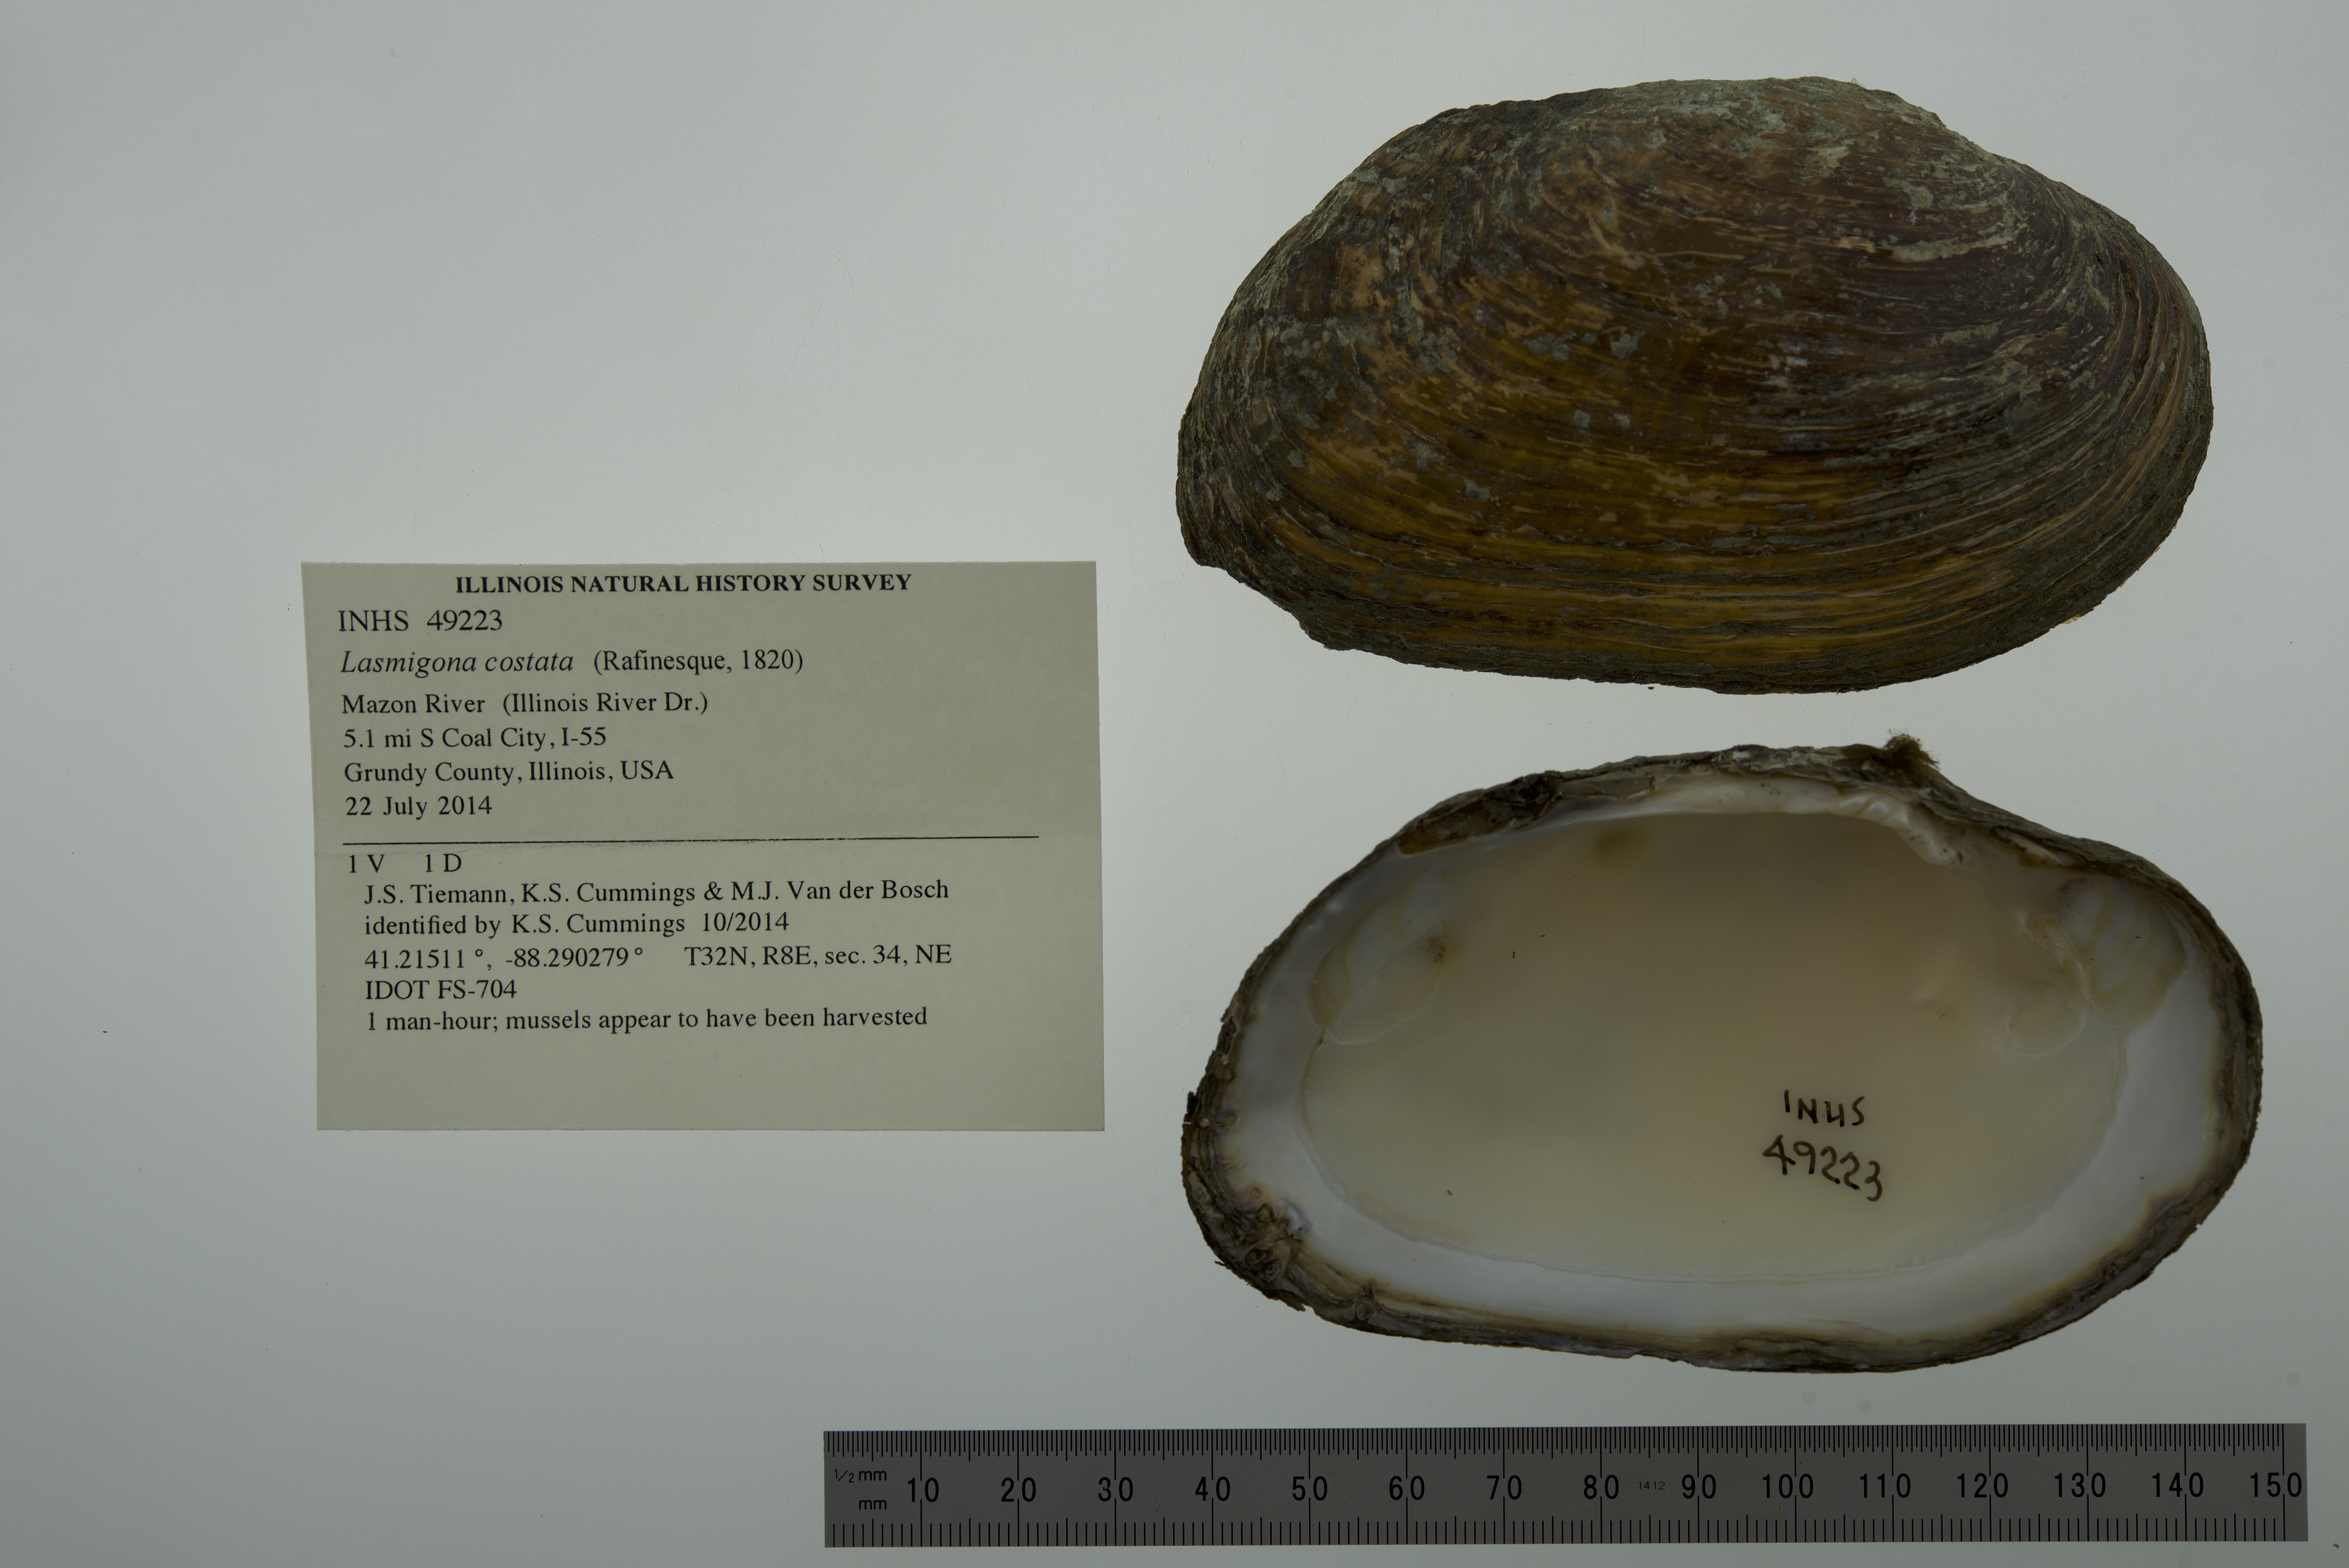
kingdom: Animalia
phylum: Mollusca
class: Bivalvia
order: Unionida
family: Unionidae
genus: Lasmigona
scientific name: Lasmigona costata
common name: Flutedshell
